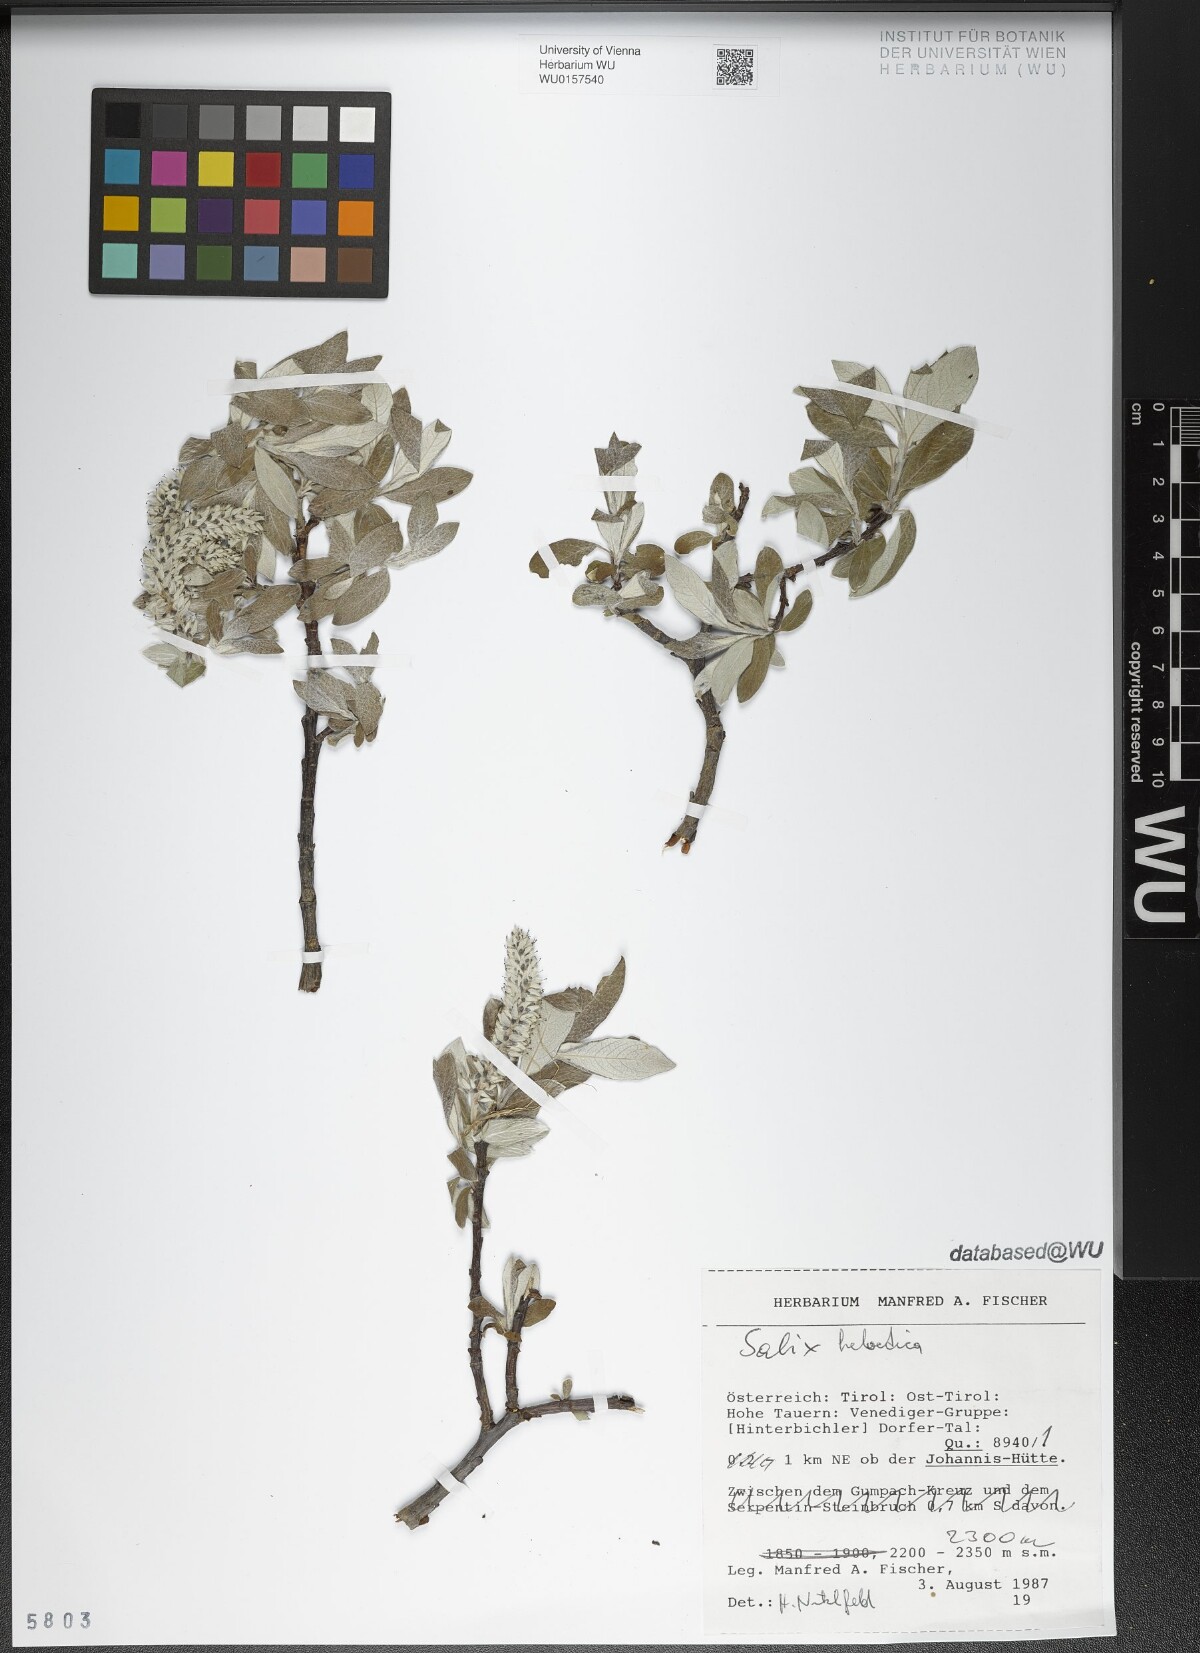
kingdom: Plantae
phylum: Tracheophyta
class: Magnoliopsida
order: Malpighiales
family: Salicaceae
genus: Salix
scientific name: Salix helvetica
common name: Swiss willow
